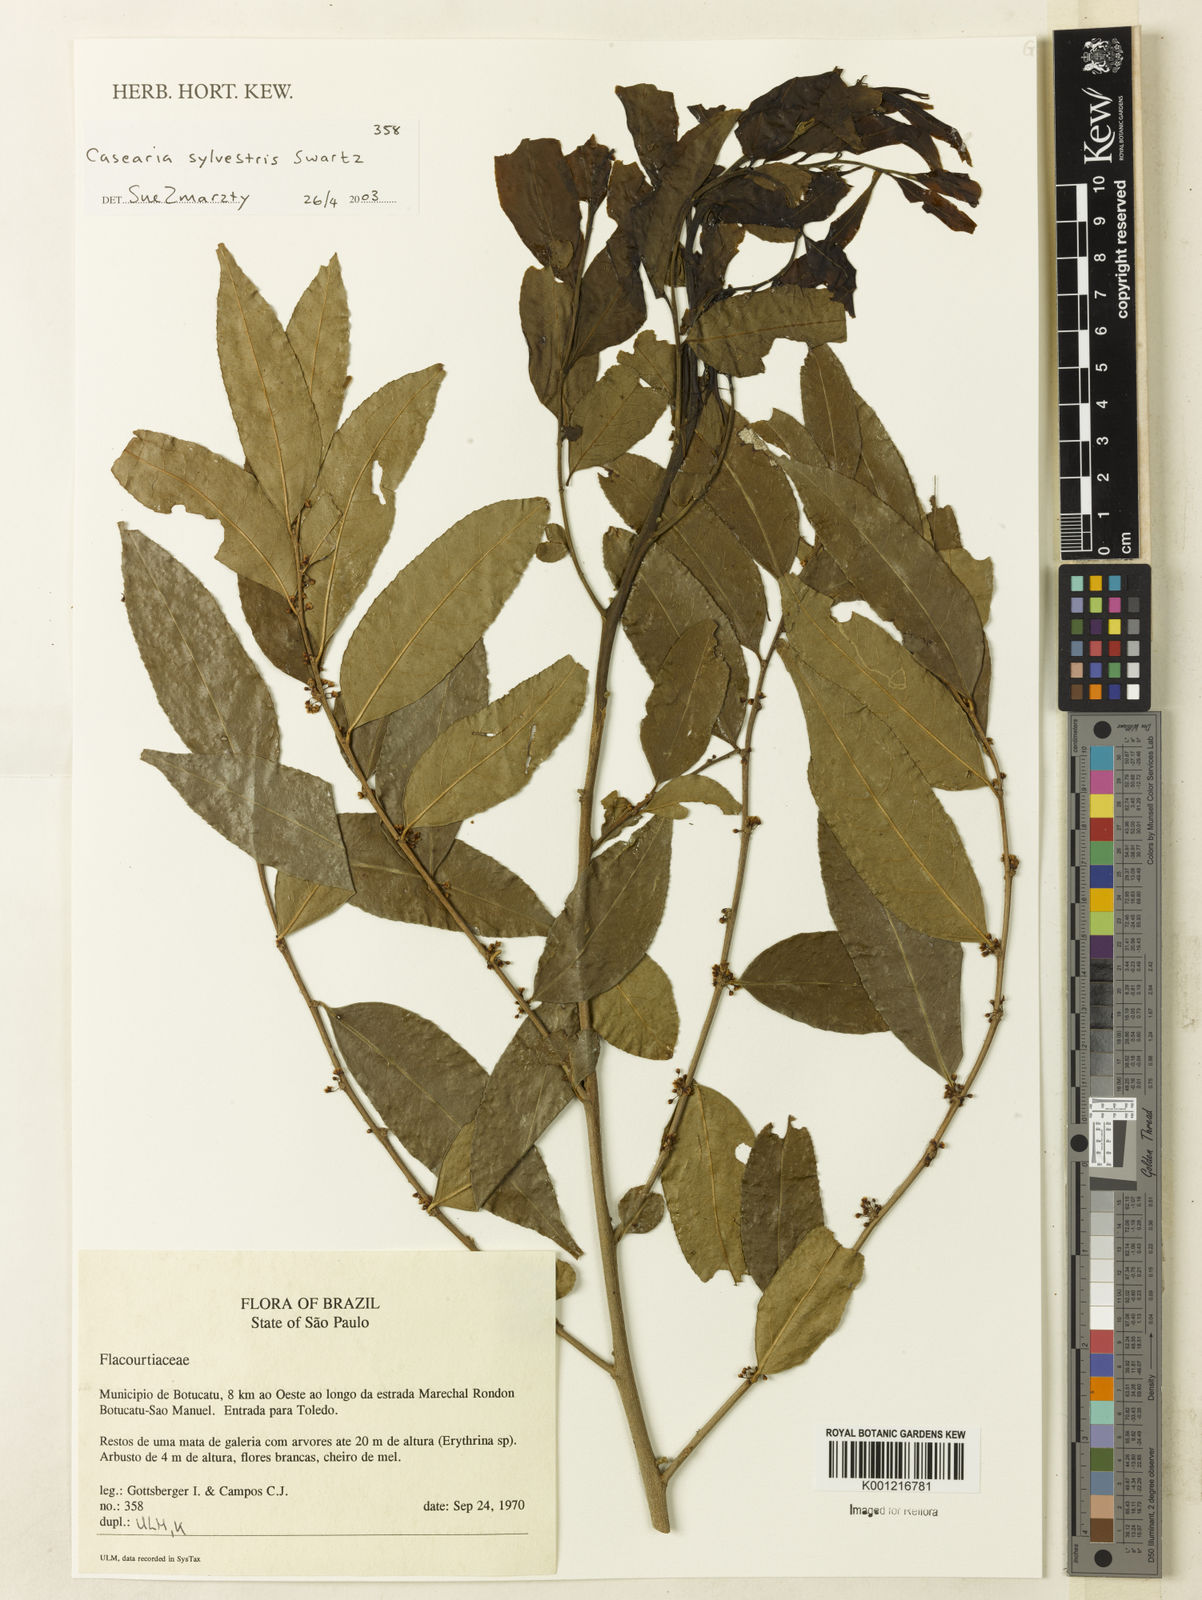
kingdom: Plantae
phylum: Tracheophyta
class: Magnoliopsida
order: Malpighiales
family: Salicaceae
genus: Casearia
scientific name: Casearia sylvestris
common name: Wild sage
